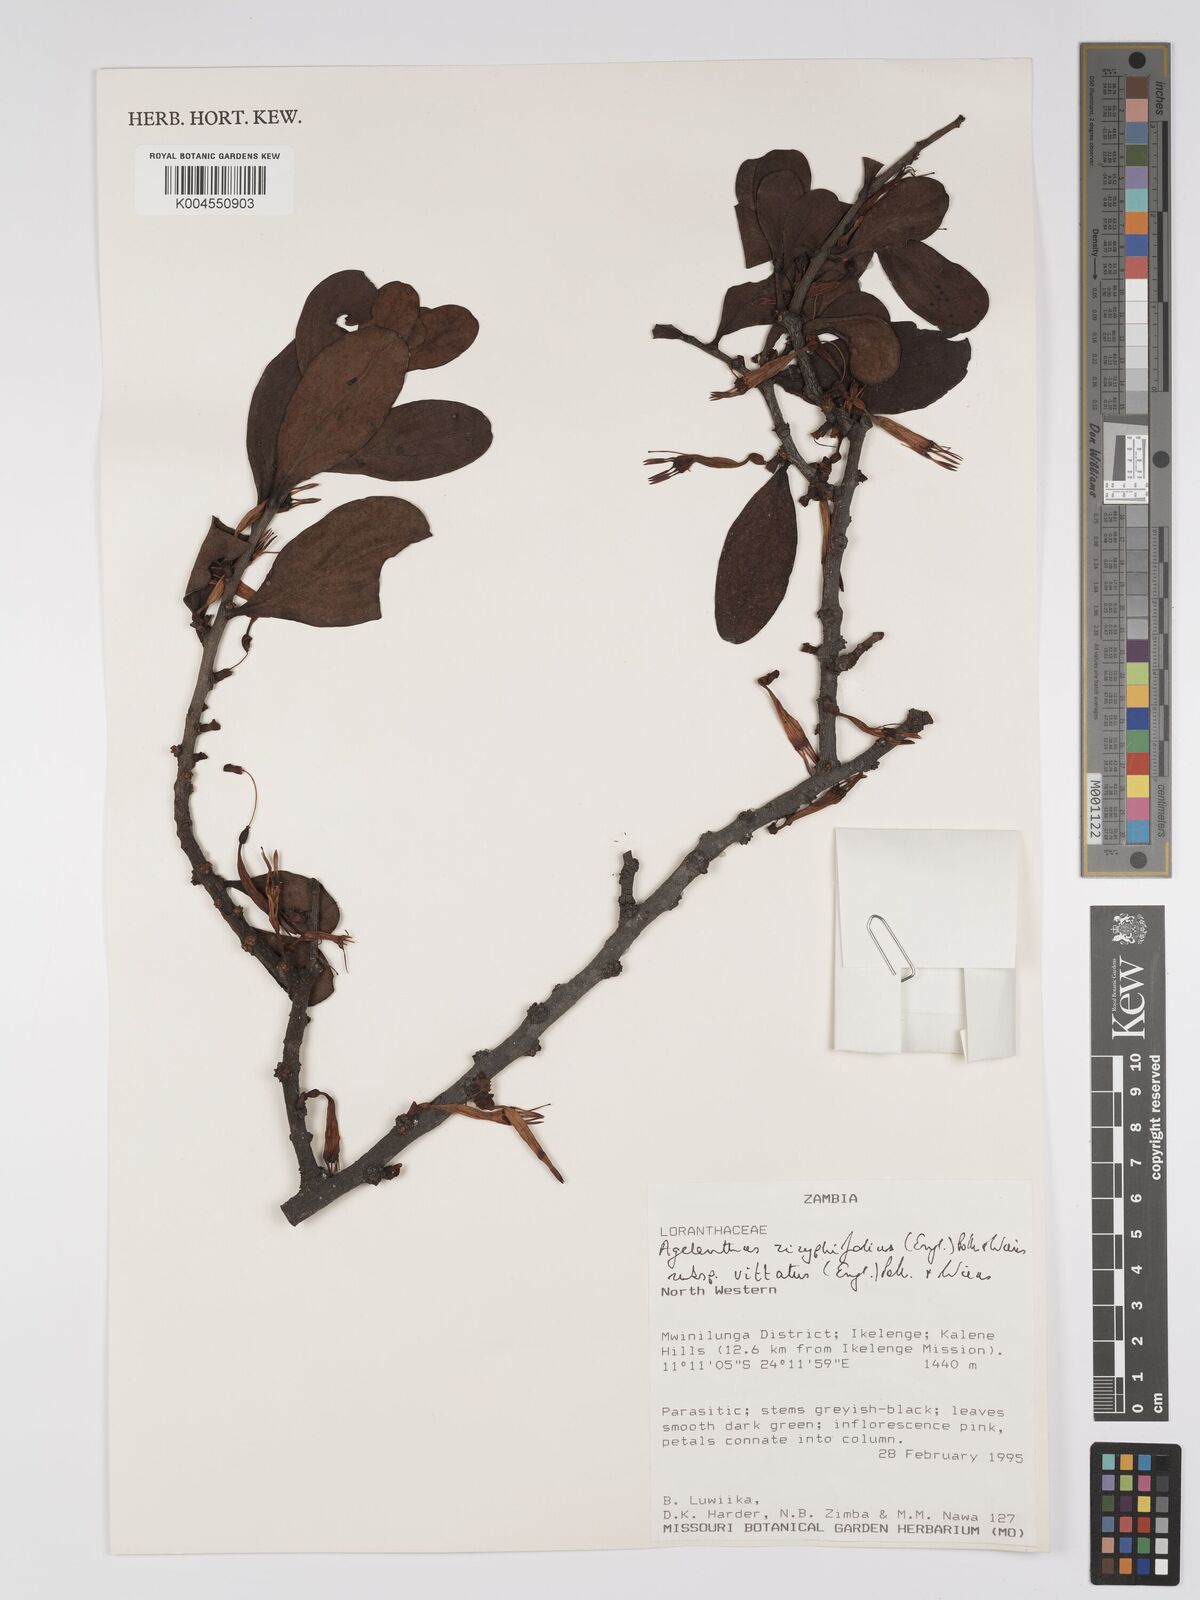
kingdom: Plantae
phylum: Tracheophyta
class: Magnoliopsida
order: Santalales
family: Loranthaceae
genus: Agelanthus
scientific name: Agelanthus zizyphifolius
